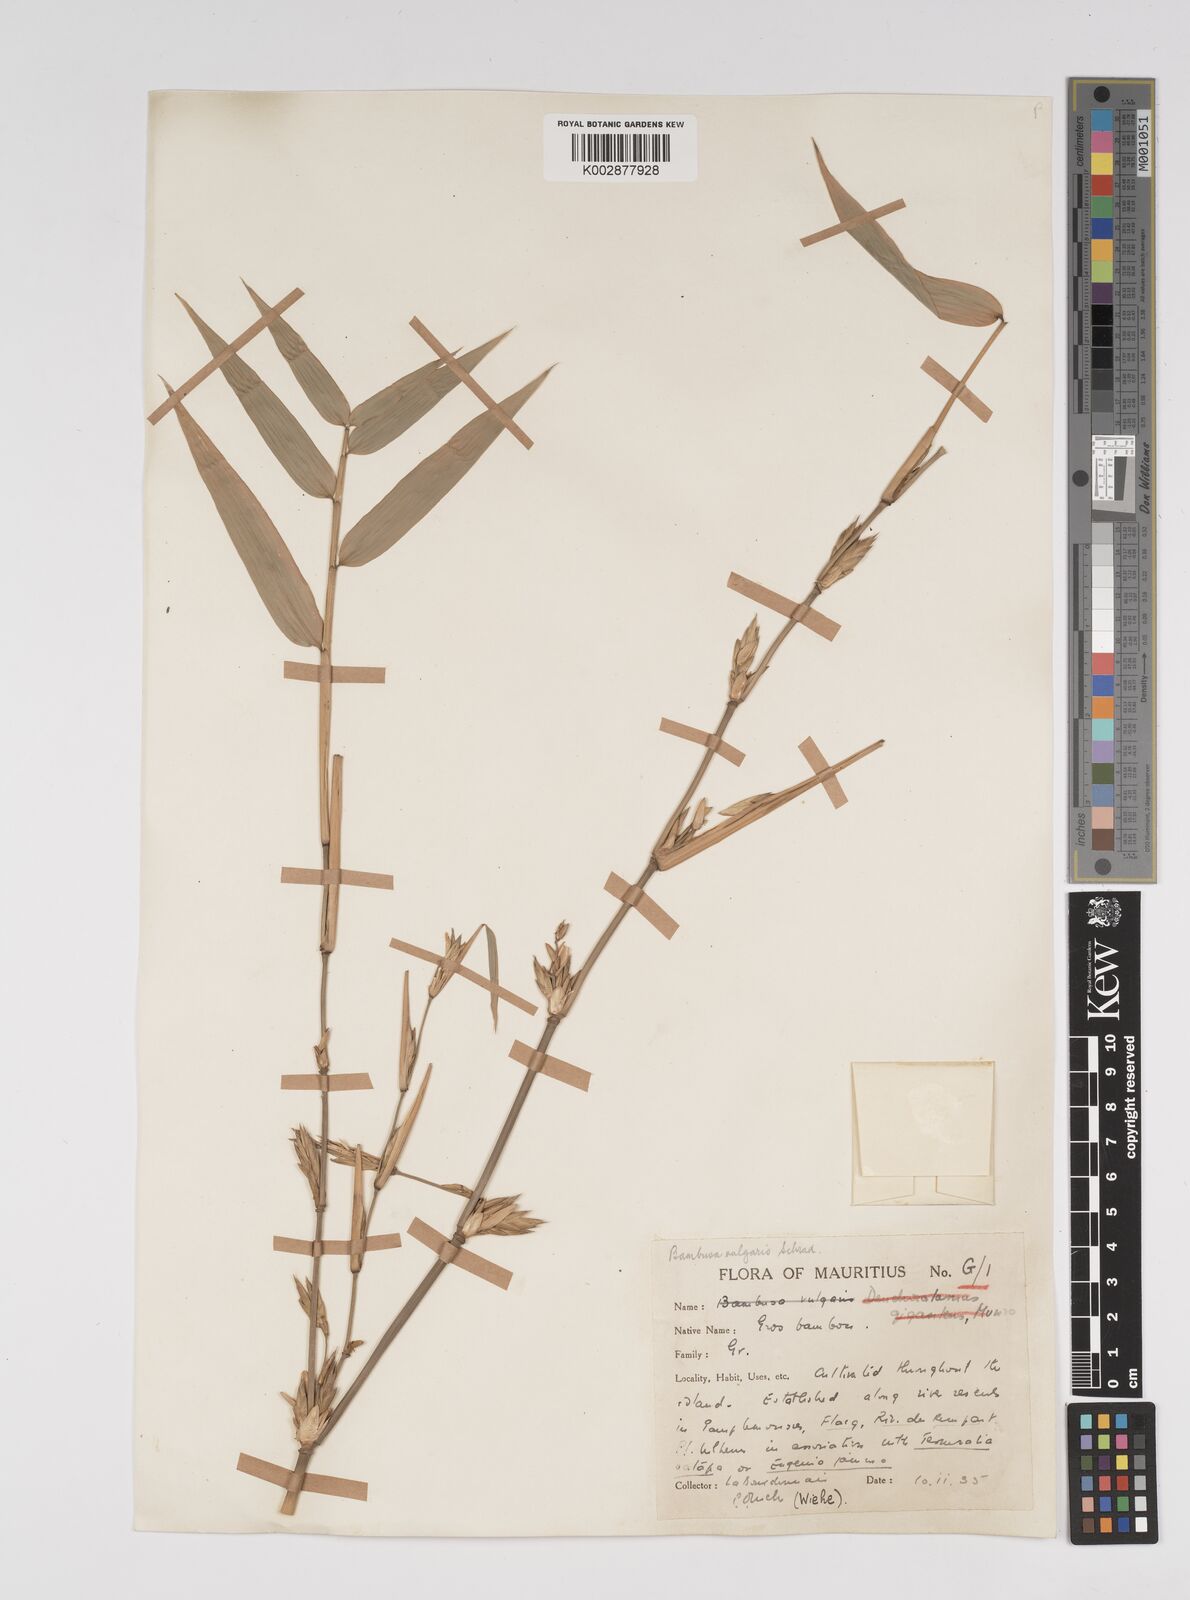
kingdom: Plantae
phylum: Tracheophyta
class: Liliopsida
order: Poales
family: Poaceae
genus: Bambusa
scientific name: Bambusa vulgaris
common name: Common bamboo
